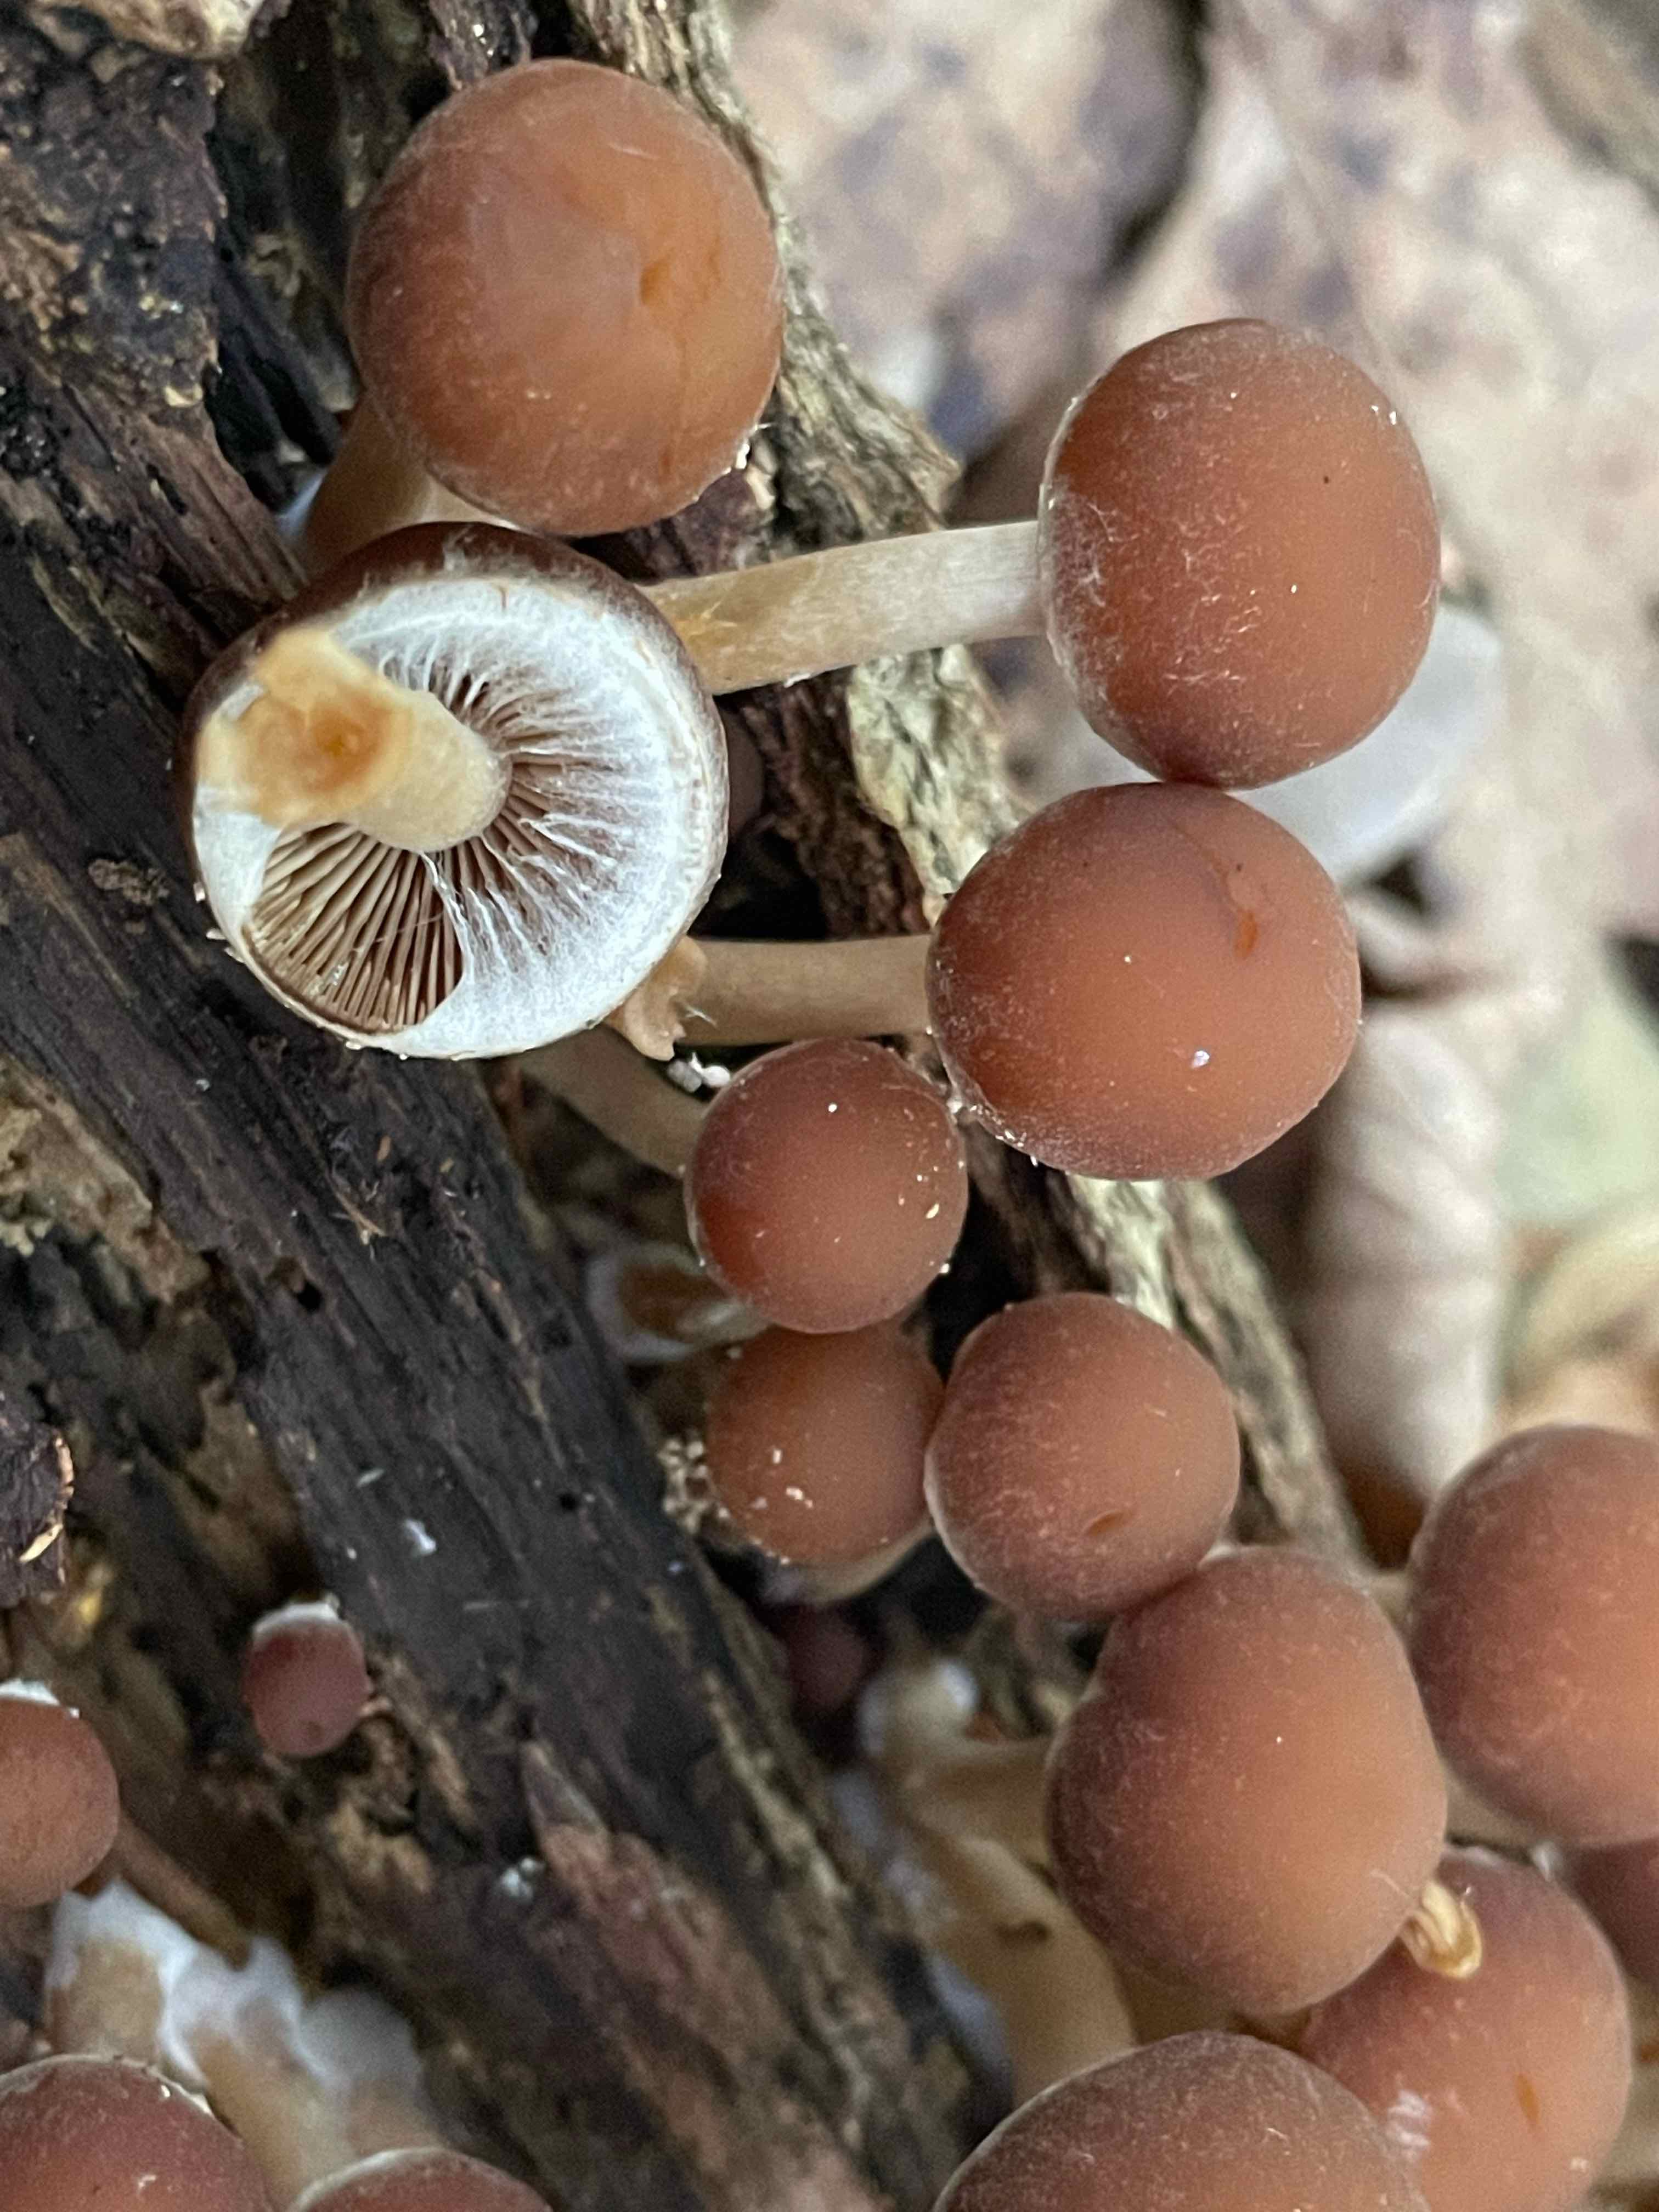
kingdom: Fungi
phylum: Basidiomycota
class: Agaricomycetes
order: Agaricales
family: Psathyrellaceae
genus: Psathyrella
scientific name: Psathyrella piluliformis
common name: lysstokket mørkhat
